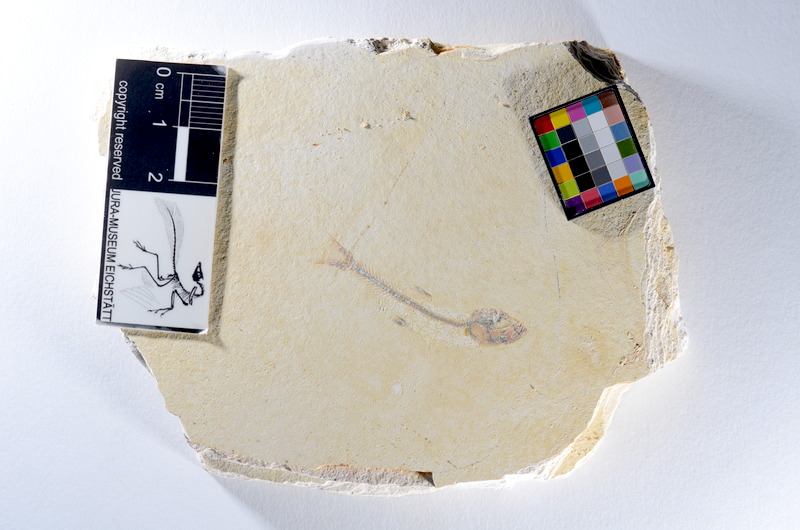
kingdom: Animalia
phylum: Chordata
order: Salmoniformes
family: Orthogonikleithridae
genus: Orthogonikleithrus
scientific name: Orthogonikleithrus hoelli
